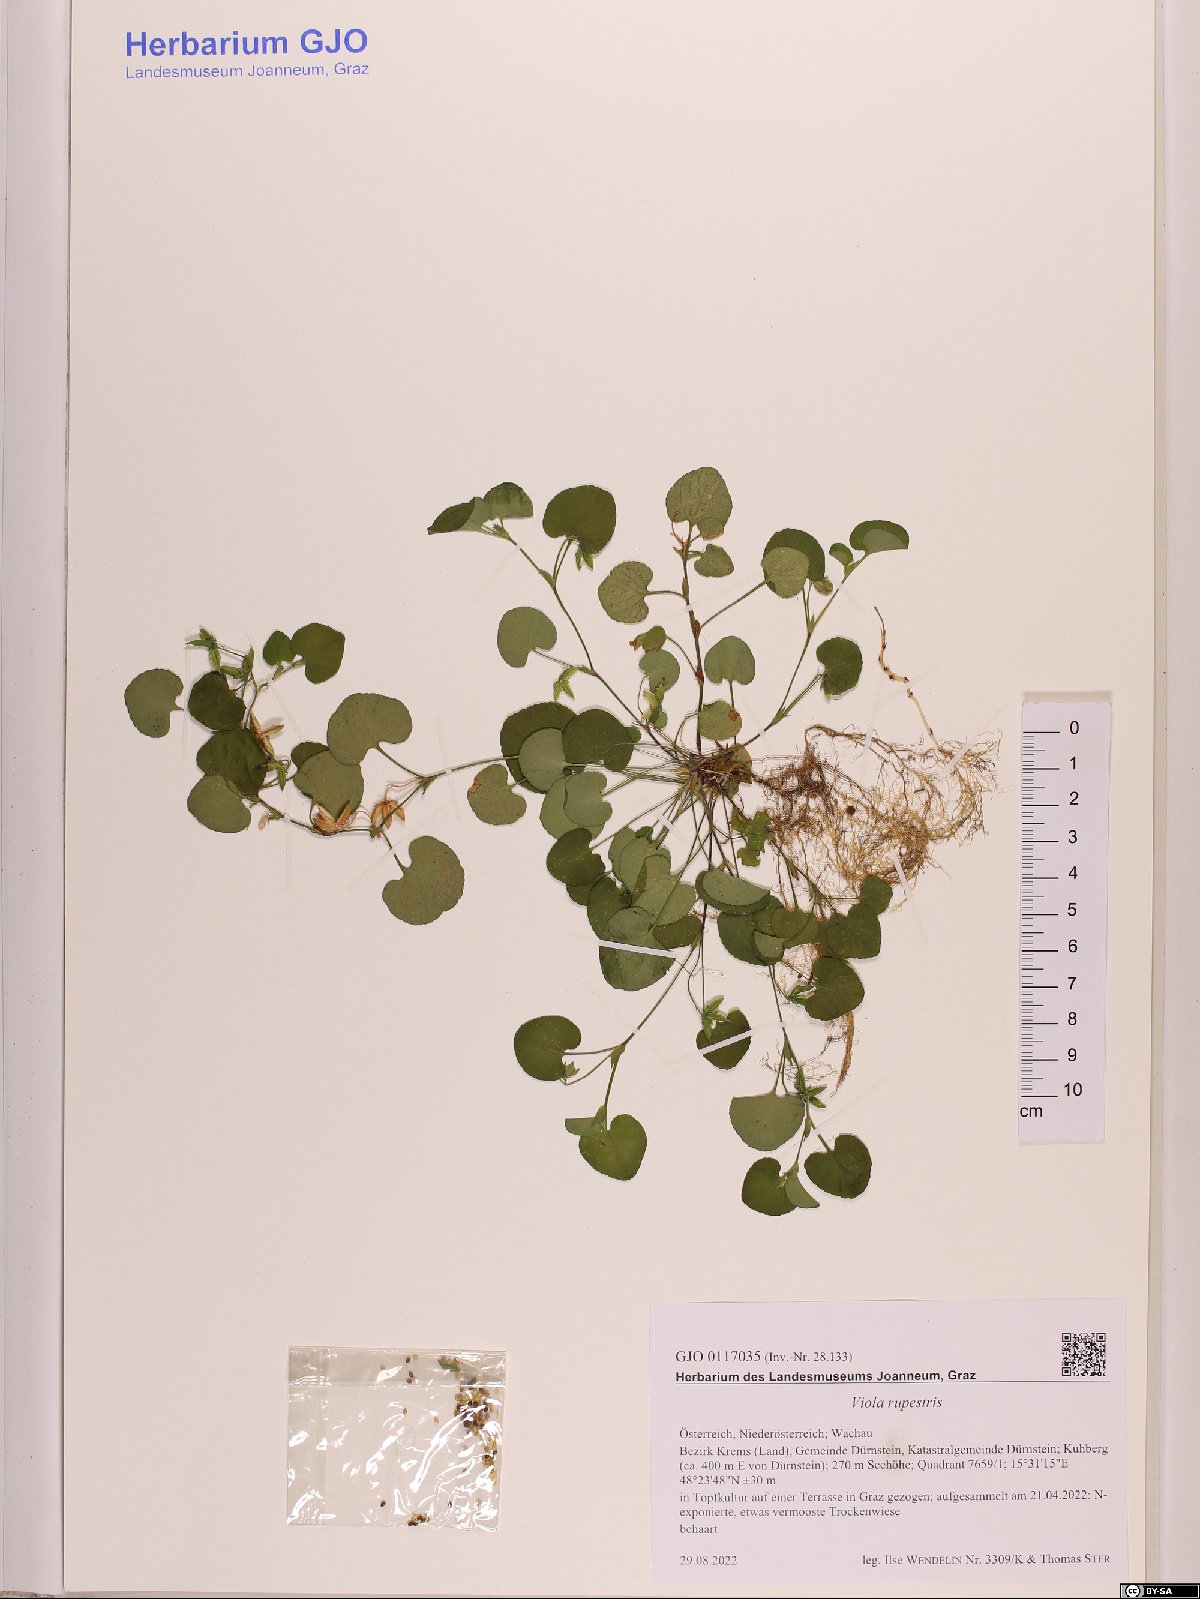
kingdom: Plantae
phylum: Tracheophyta
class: Magnoliopsida
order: Malpighiales
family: Violaceae
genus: Viola
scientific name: Viola rupestris
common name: Teesdale violet
